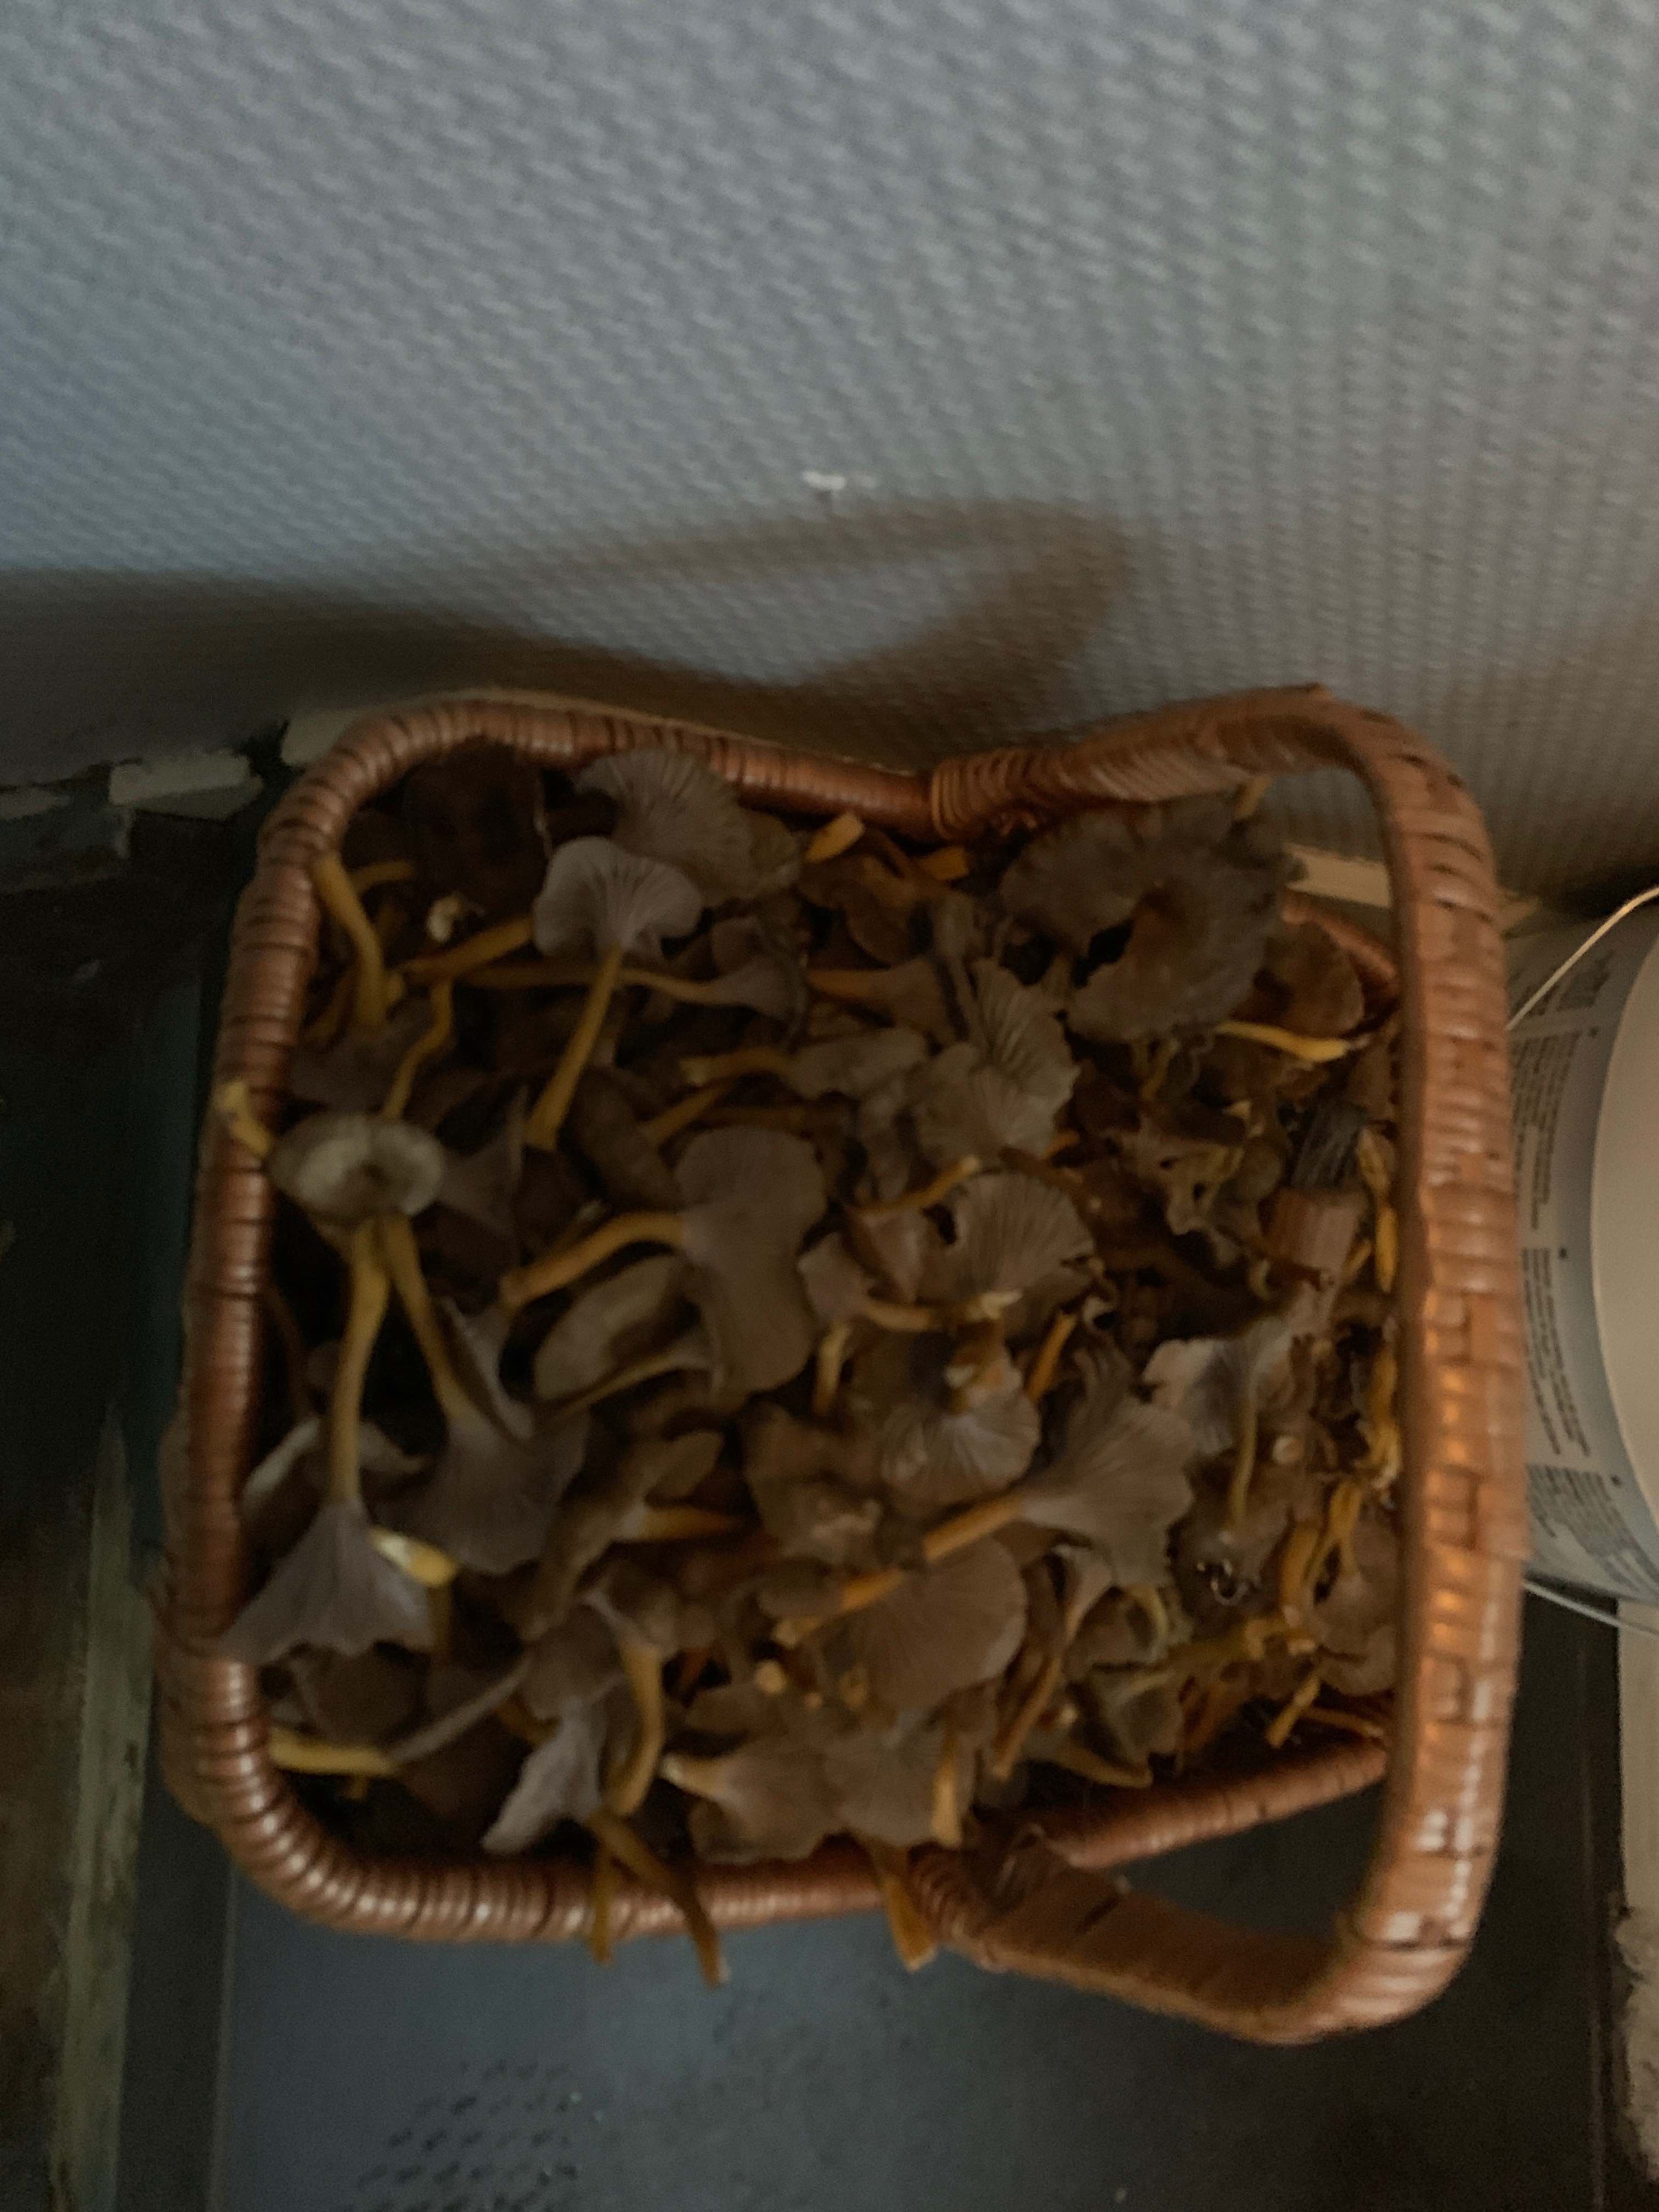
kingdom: Fungi
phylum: Basidiomycota
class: Agaricomycetes
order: Cantharellales
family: Hydnaceae
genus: Craterellus
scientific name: Craterellus tubaeformis
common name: tragt-kantarel
